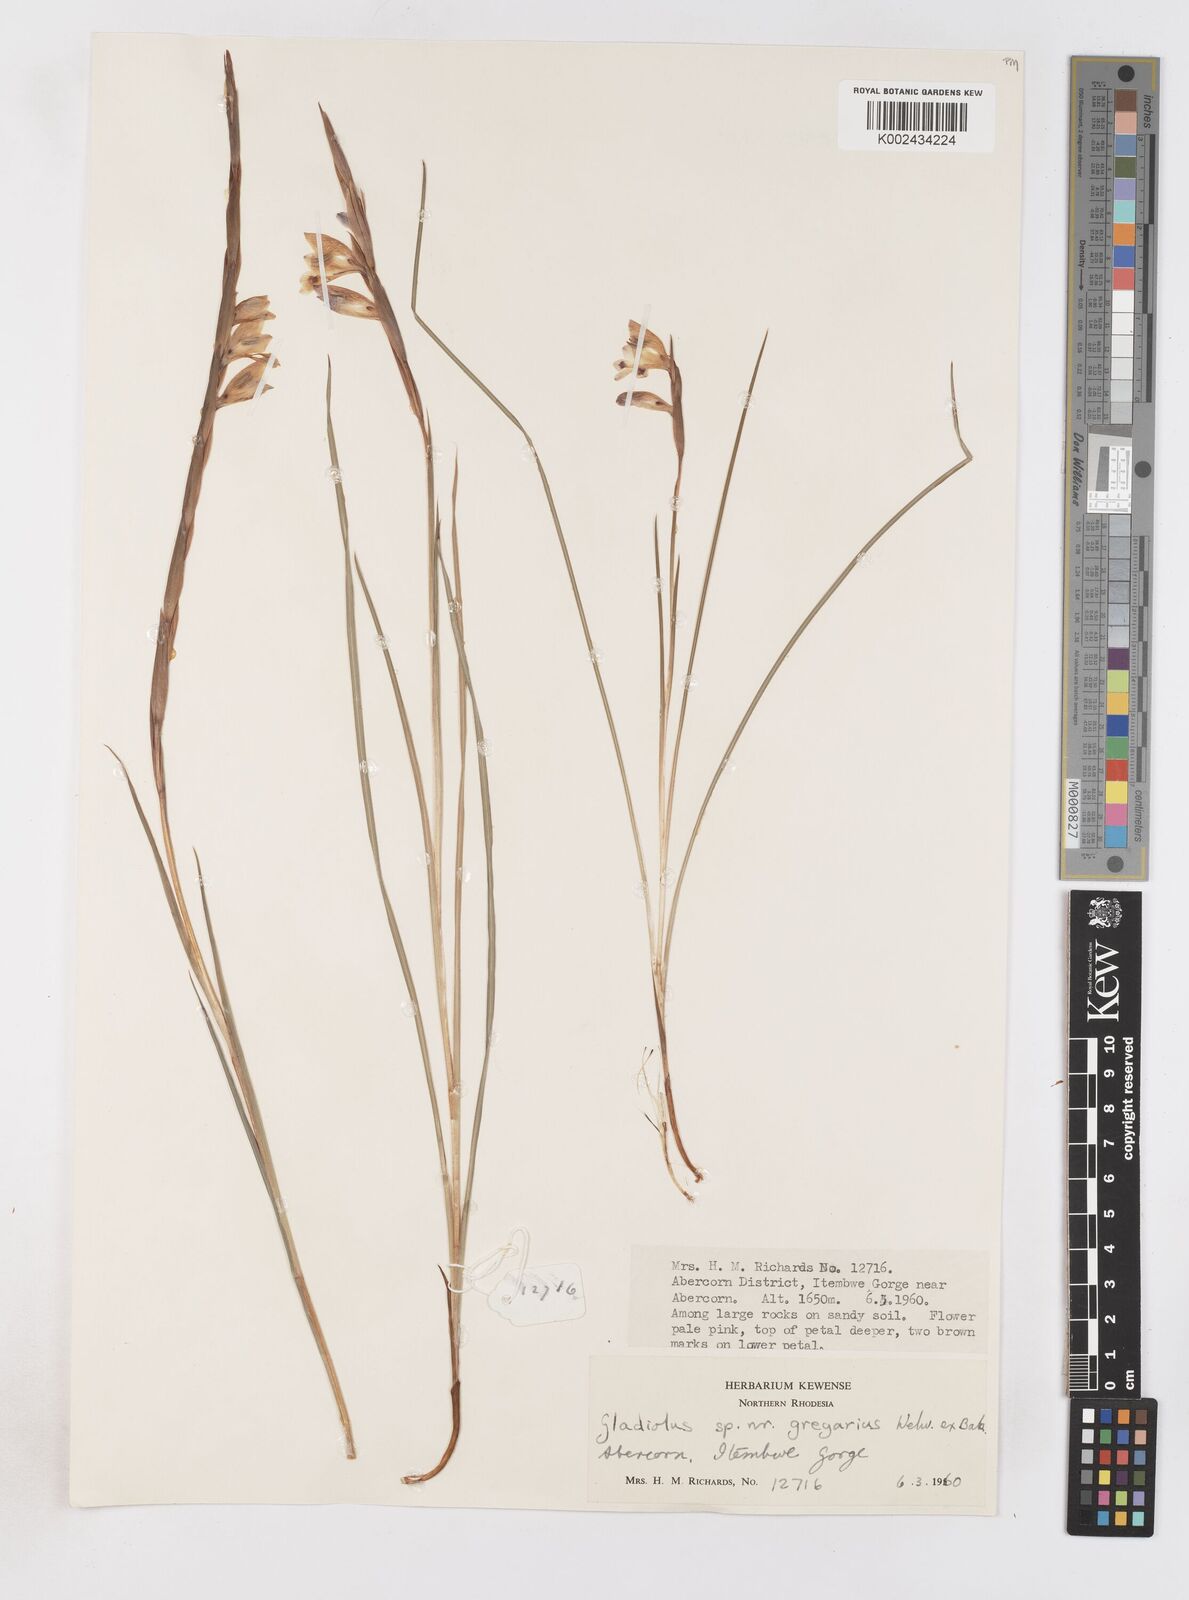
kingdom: Plantae
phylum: Tracheophyta
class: Liliopsida
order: Asparagales
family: Iridaceae
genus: Gladiolus
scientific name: Gladiolus gregarius
